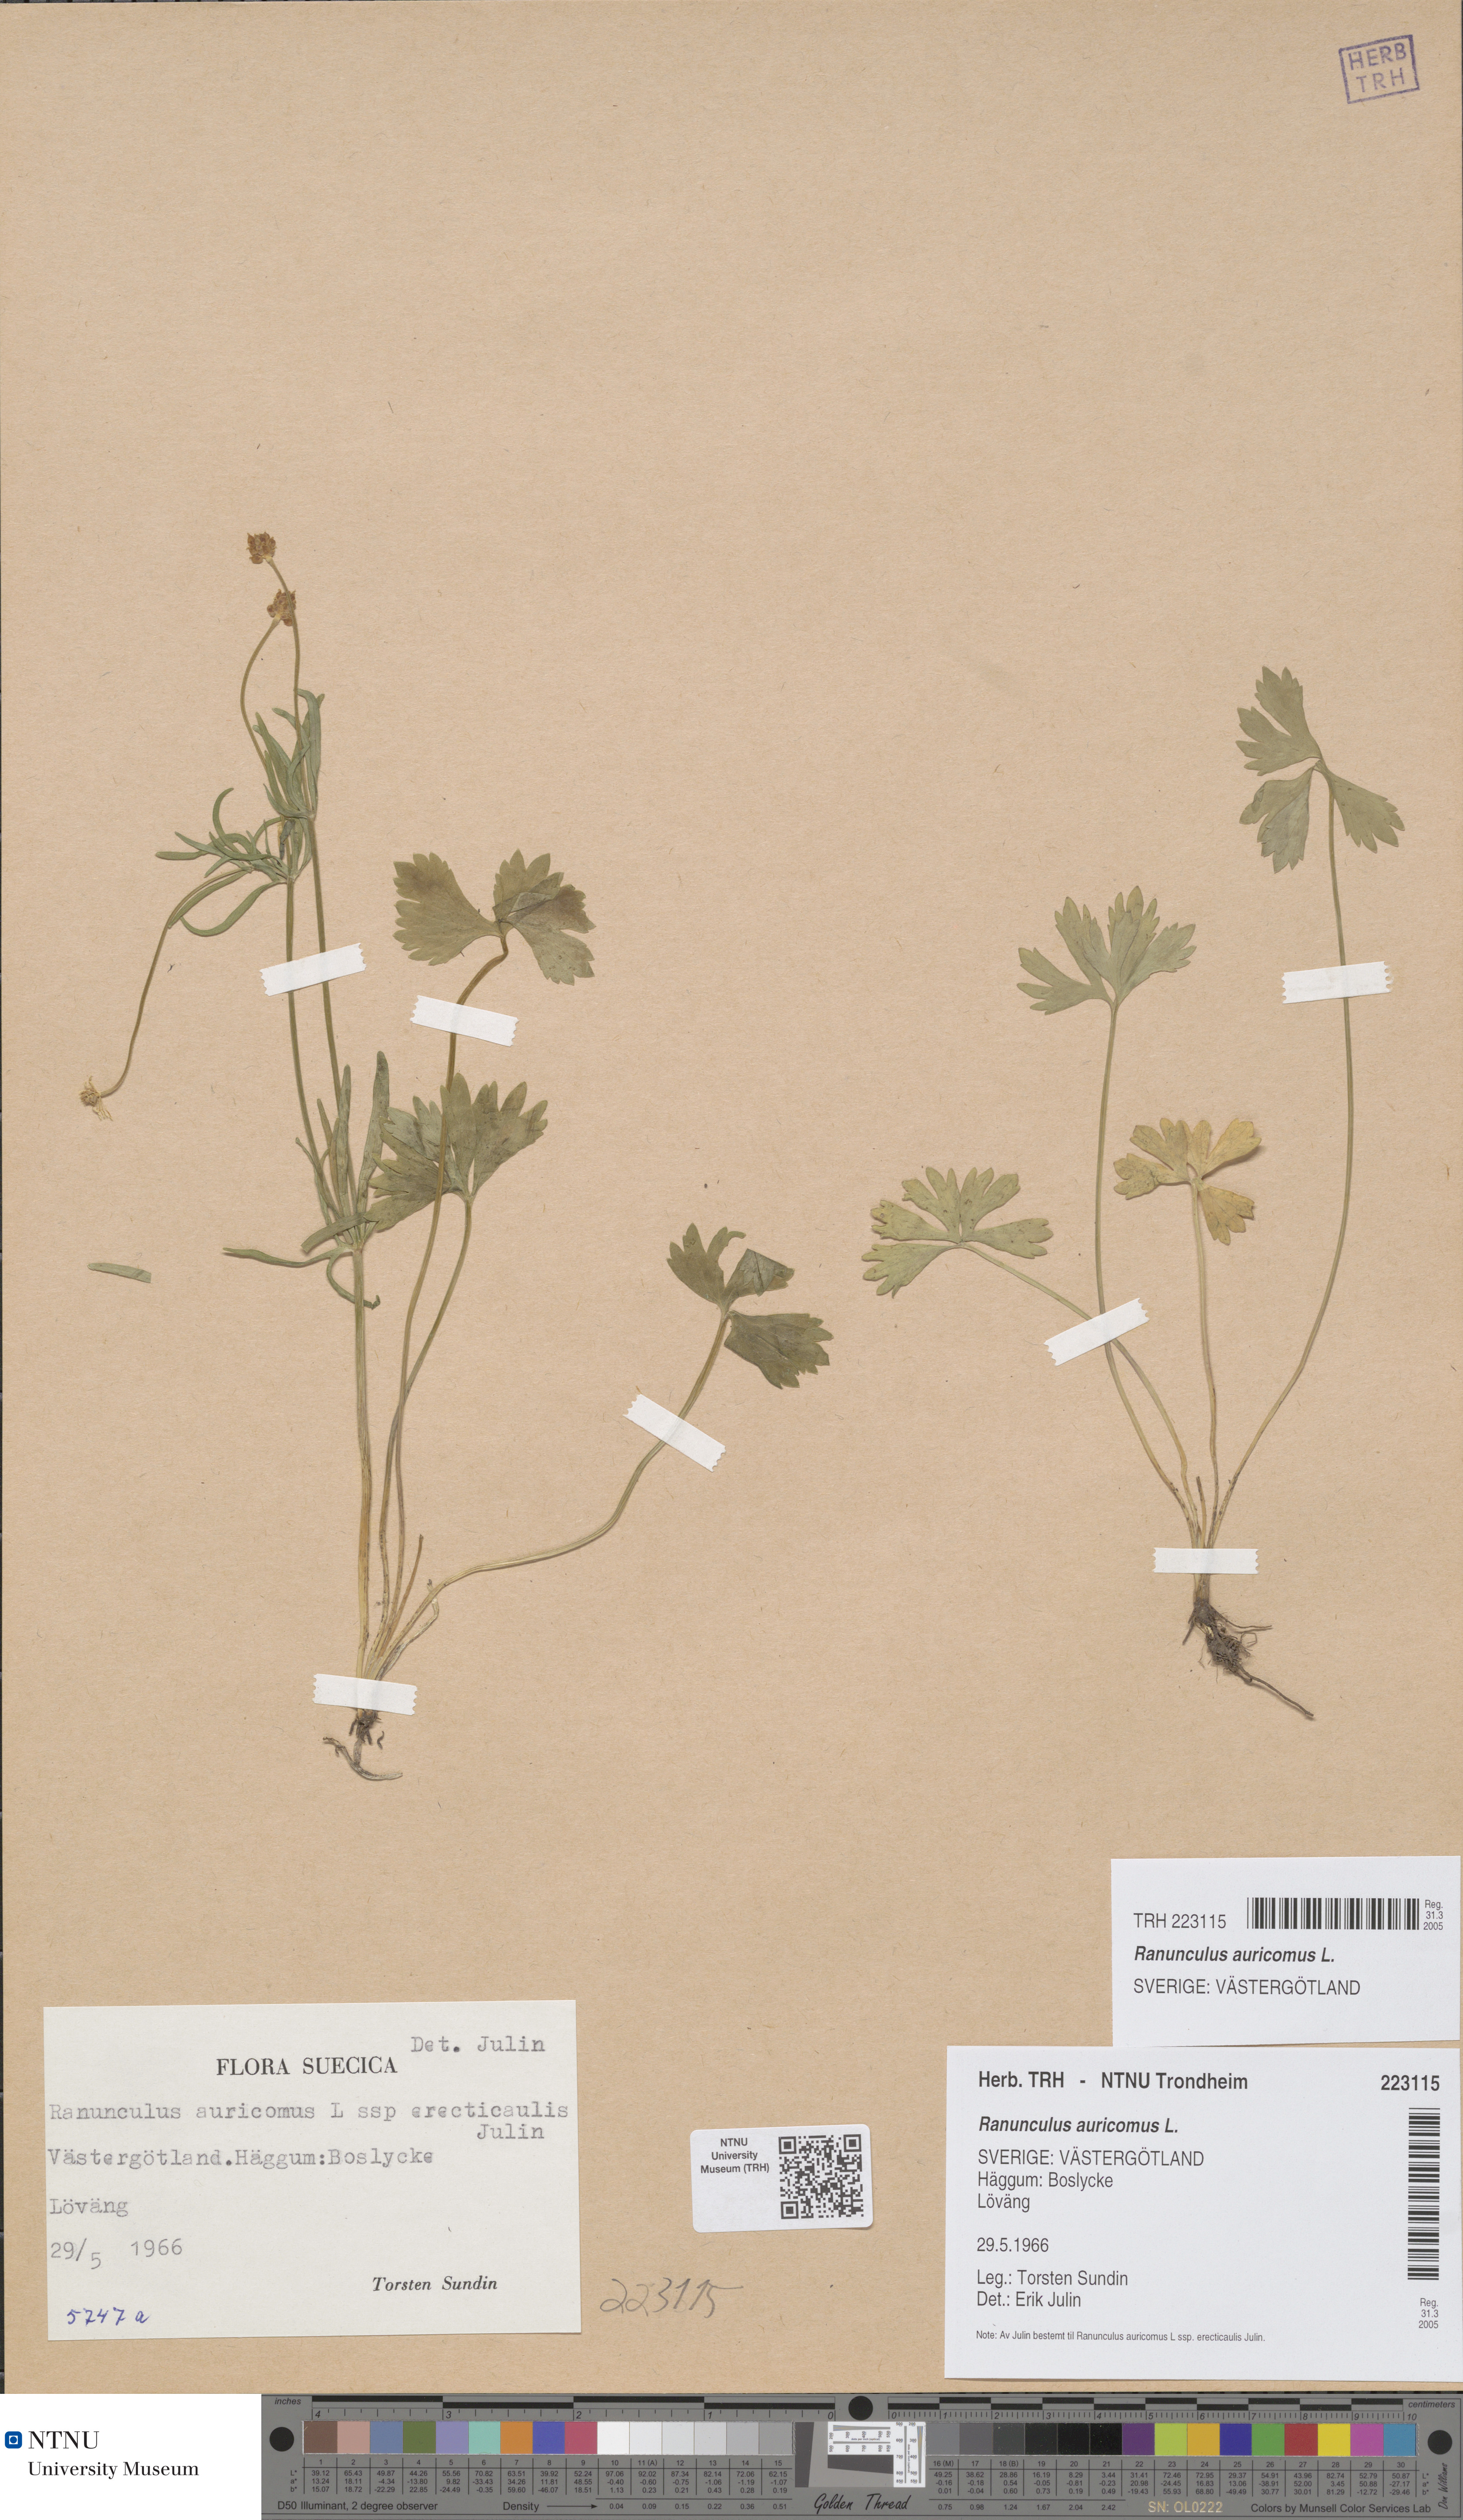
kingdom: Plantae
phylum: Tracheophyta
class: Magnoliopsida
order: Ranunculales
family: Ranunculaceae
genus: Ranunculus
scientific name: Ranunculus auricomus
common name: Goldilocks buttercup
